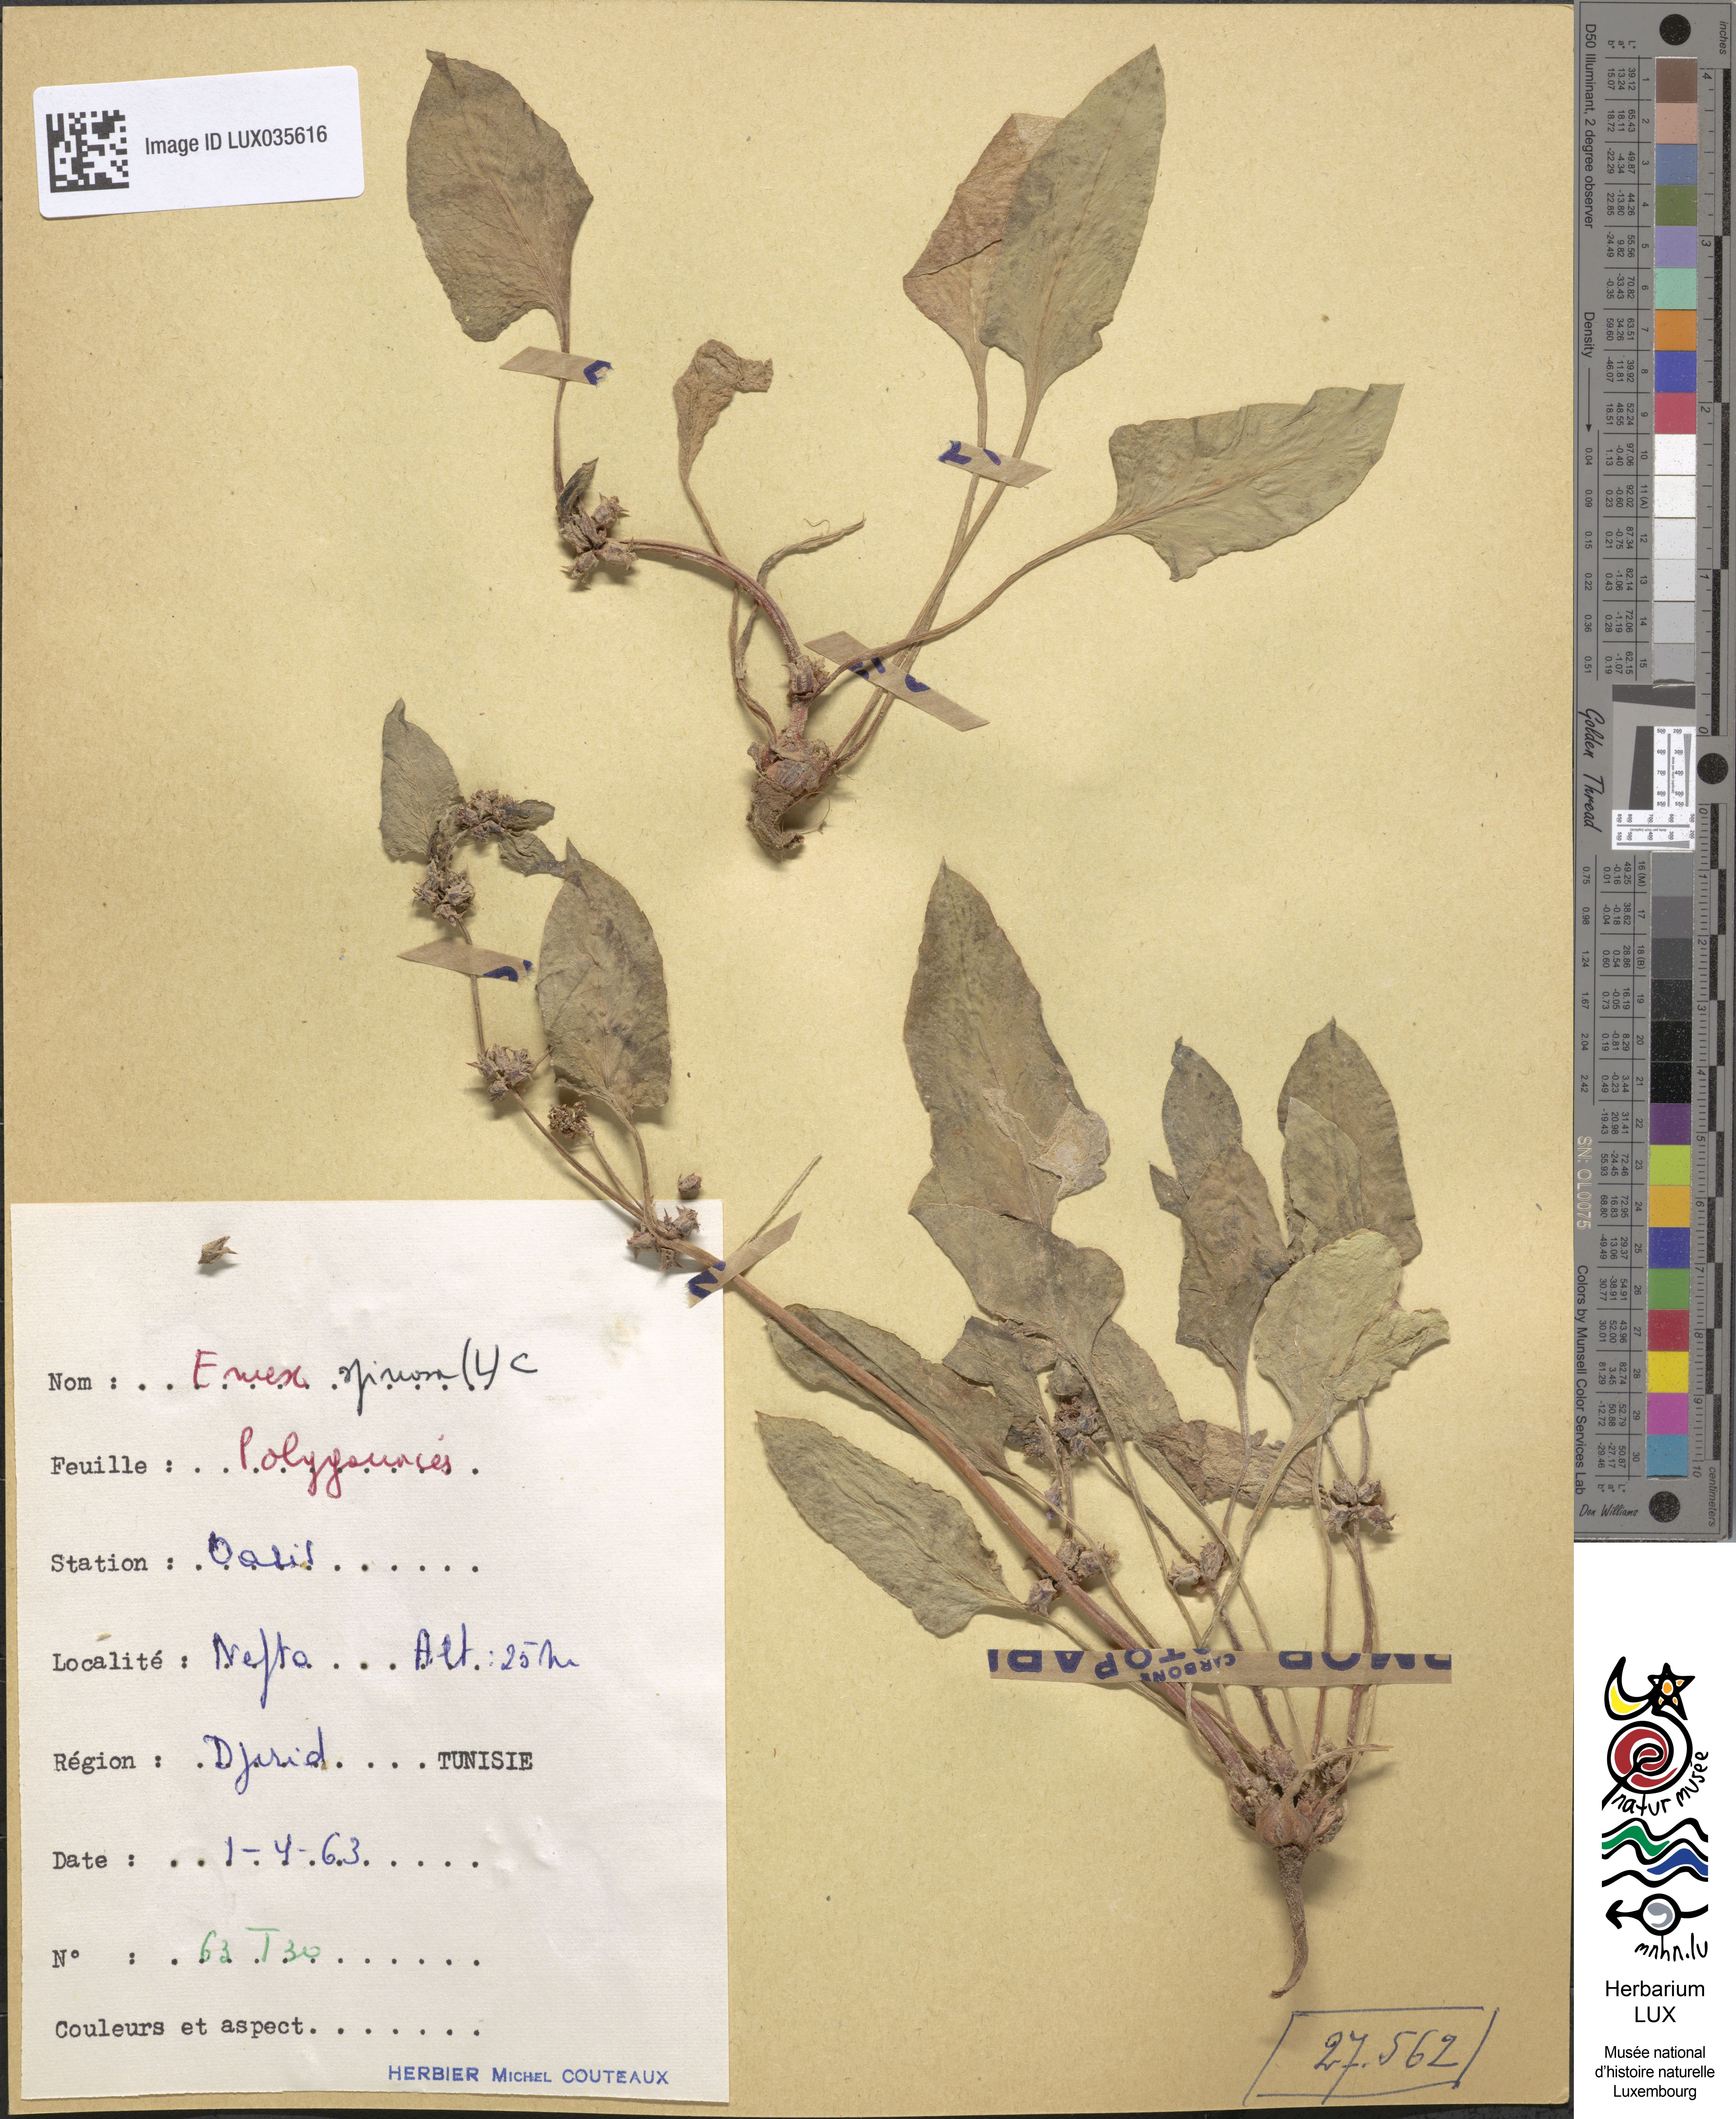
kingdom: Plantae
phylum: Tracheophyta
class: Magnoliopsida
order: Caryophyllales
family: Polygonaceae
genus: Rumex
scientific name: Rumex spinosus
